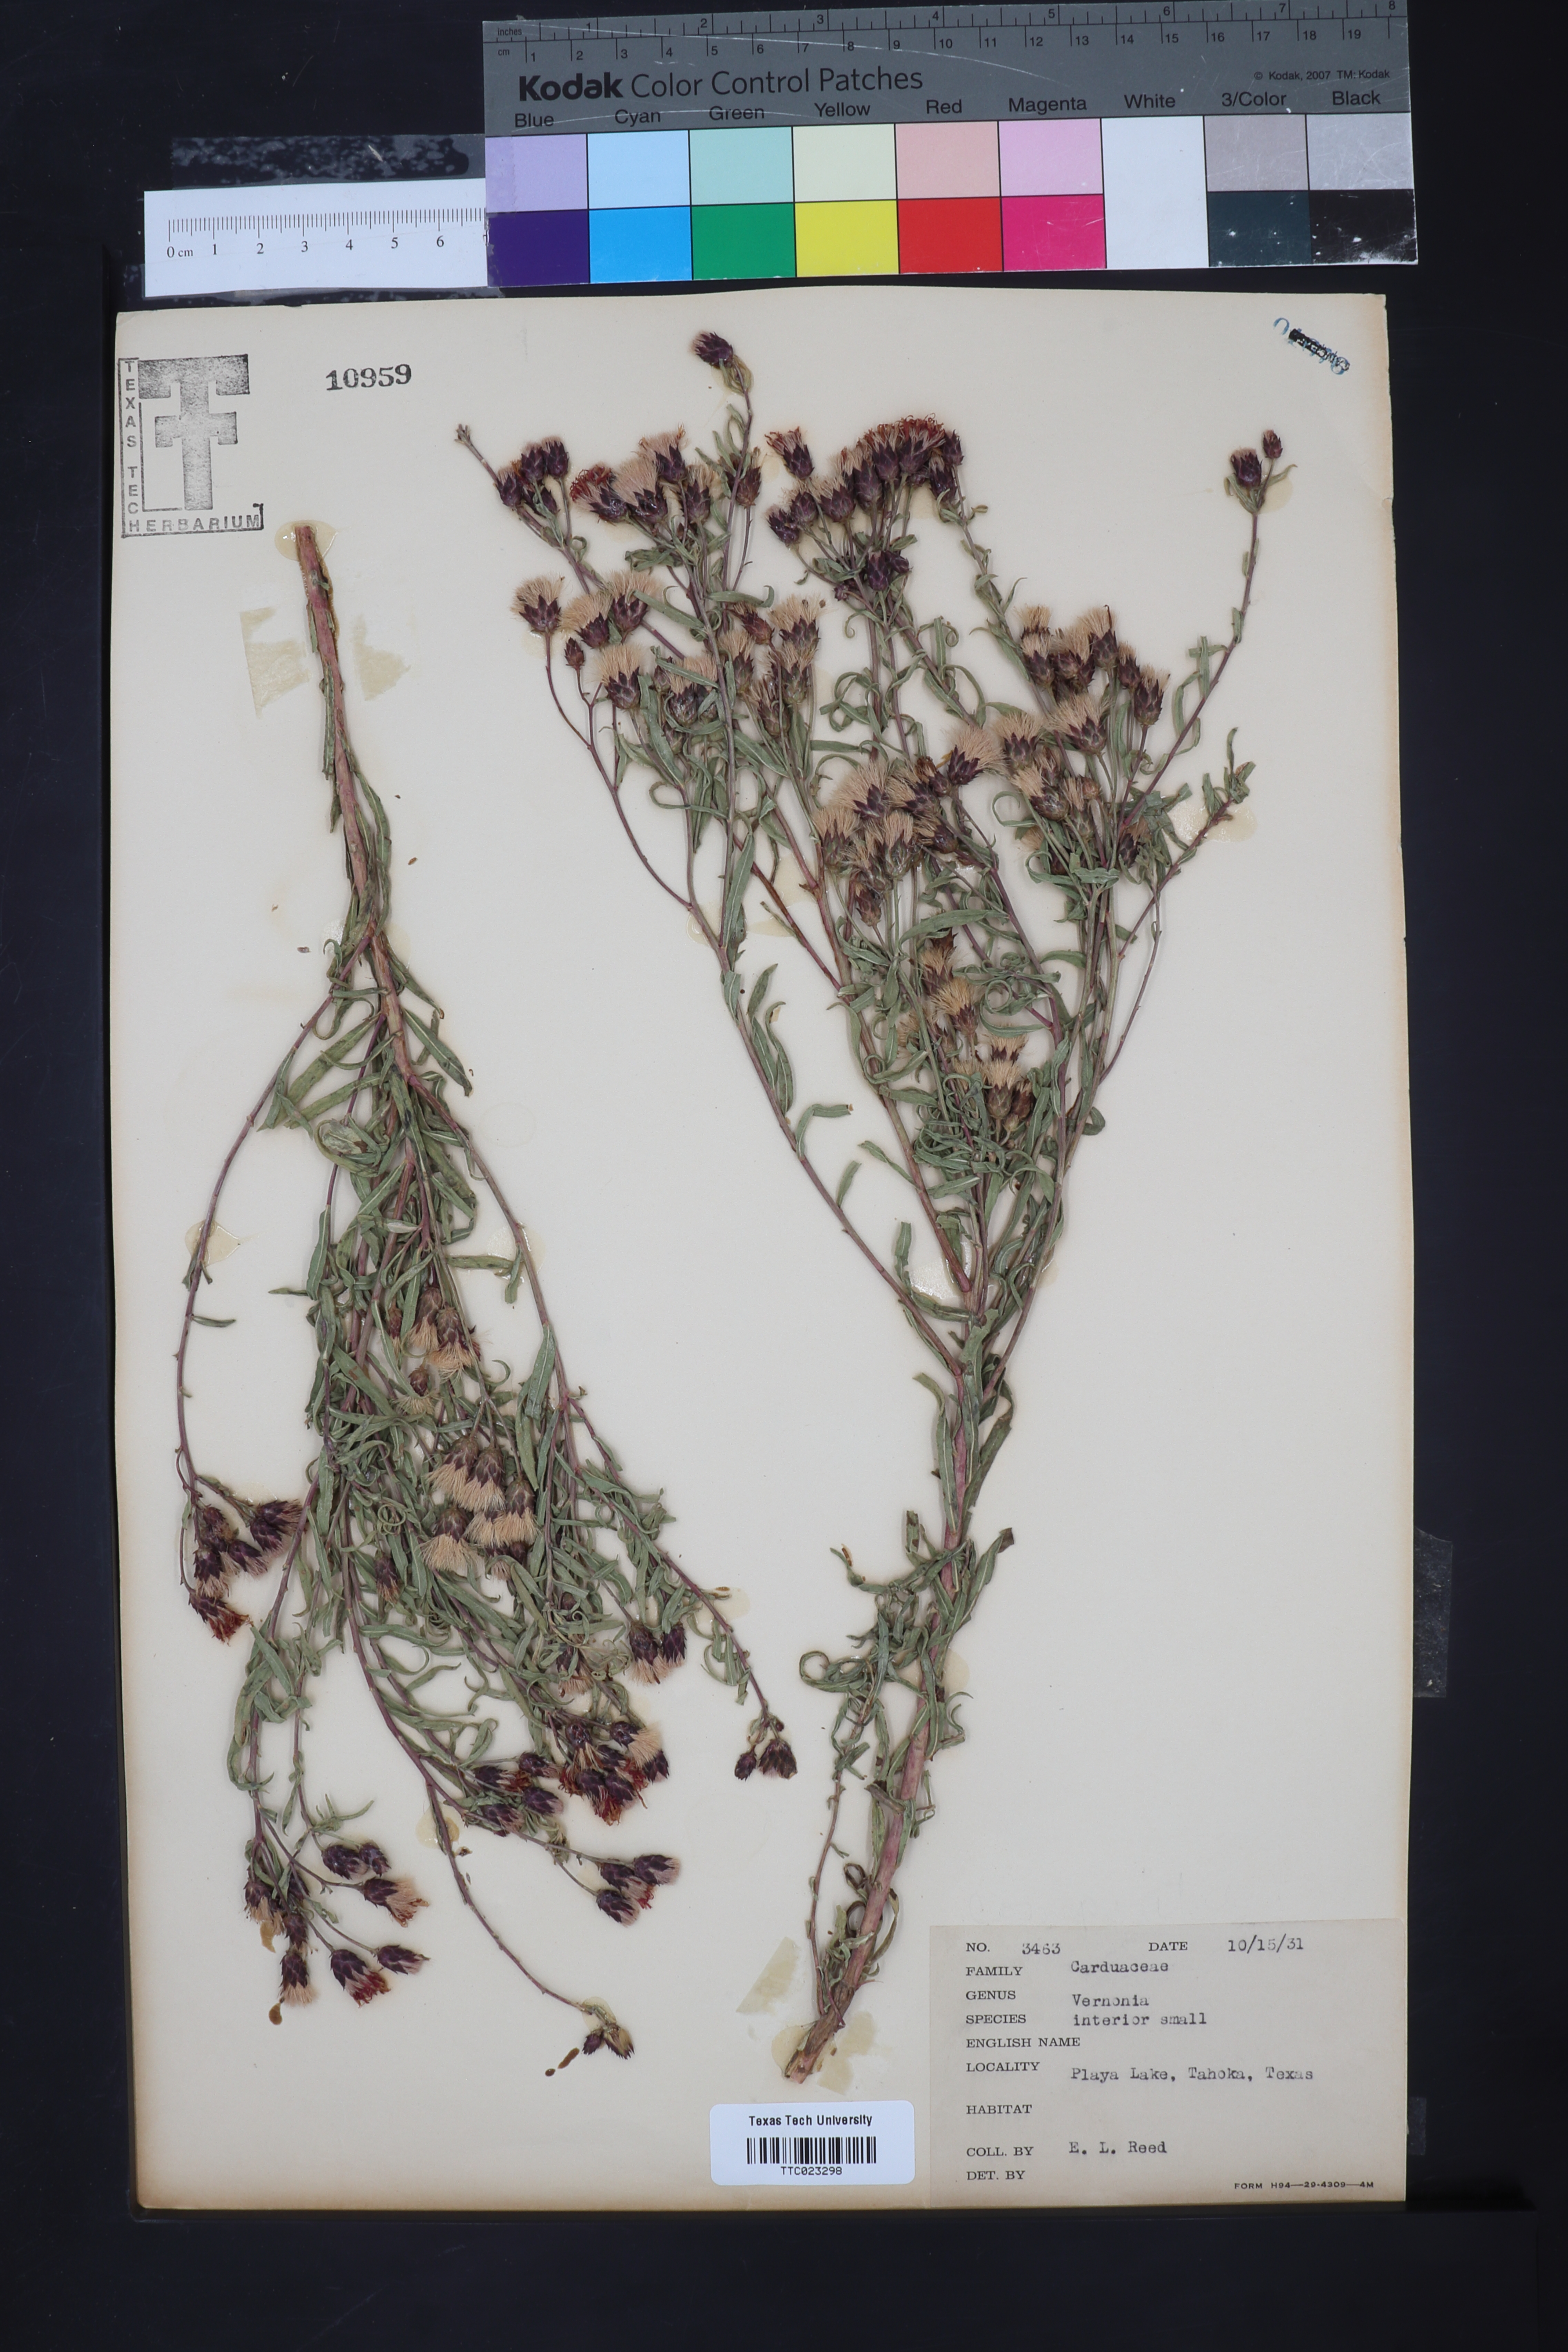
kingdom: Plantae
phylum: Tracheophyta
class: Magnoliopsida
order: Asterales
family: Asteraceae
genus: Vernonia
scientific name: Vernonia baldwinii
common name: Western ironweed
